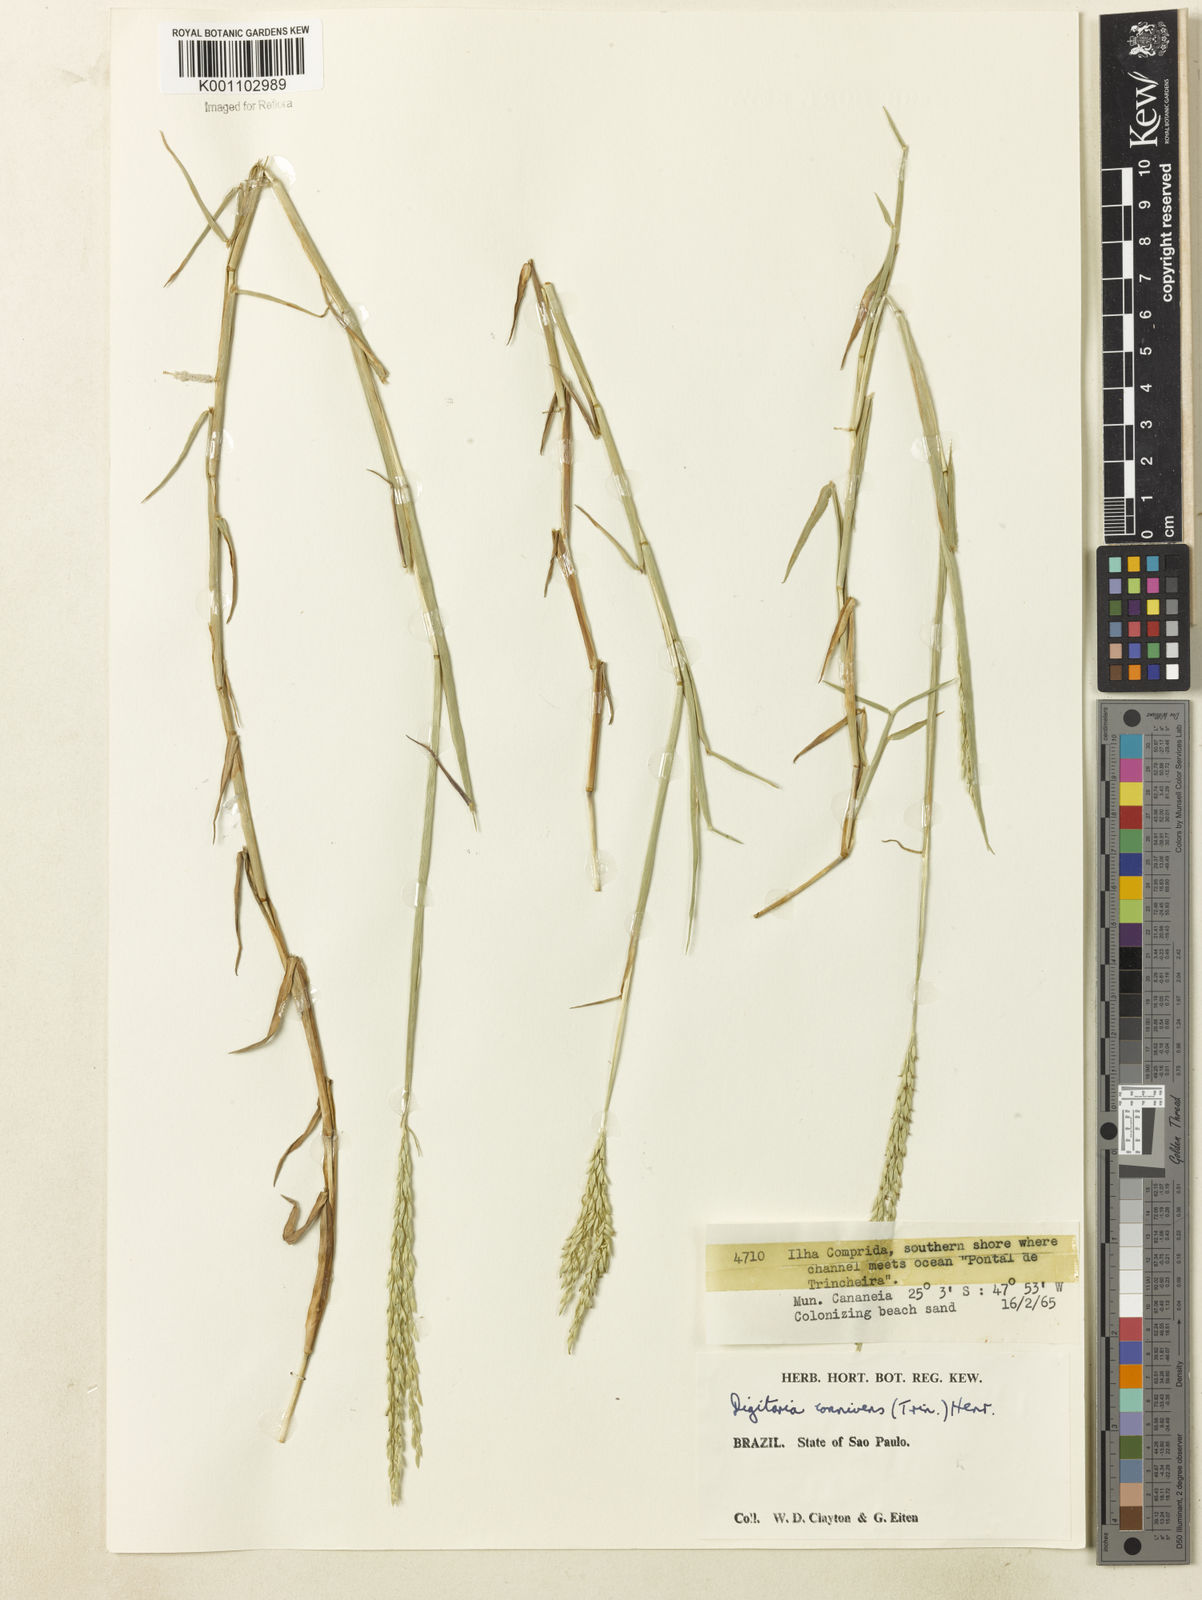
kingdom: Plantae
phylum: Tracheophyta
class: Liliopsida
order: Poales
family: Poaceae
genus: Digitaria
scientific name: Digitaria connivens
